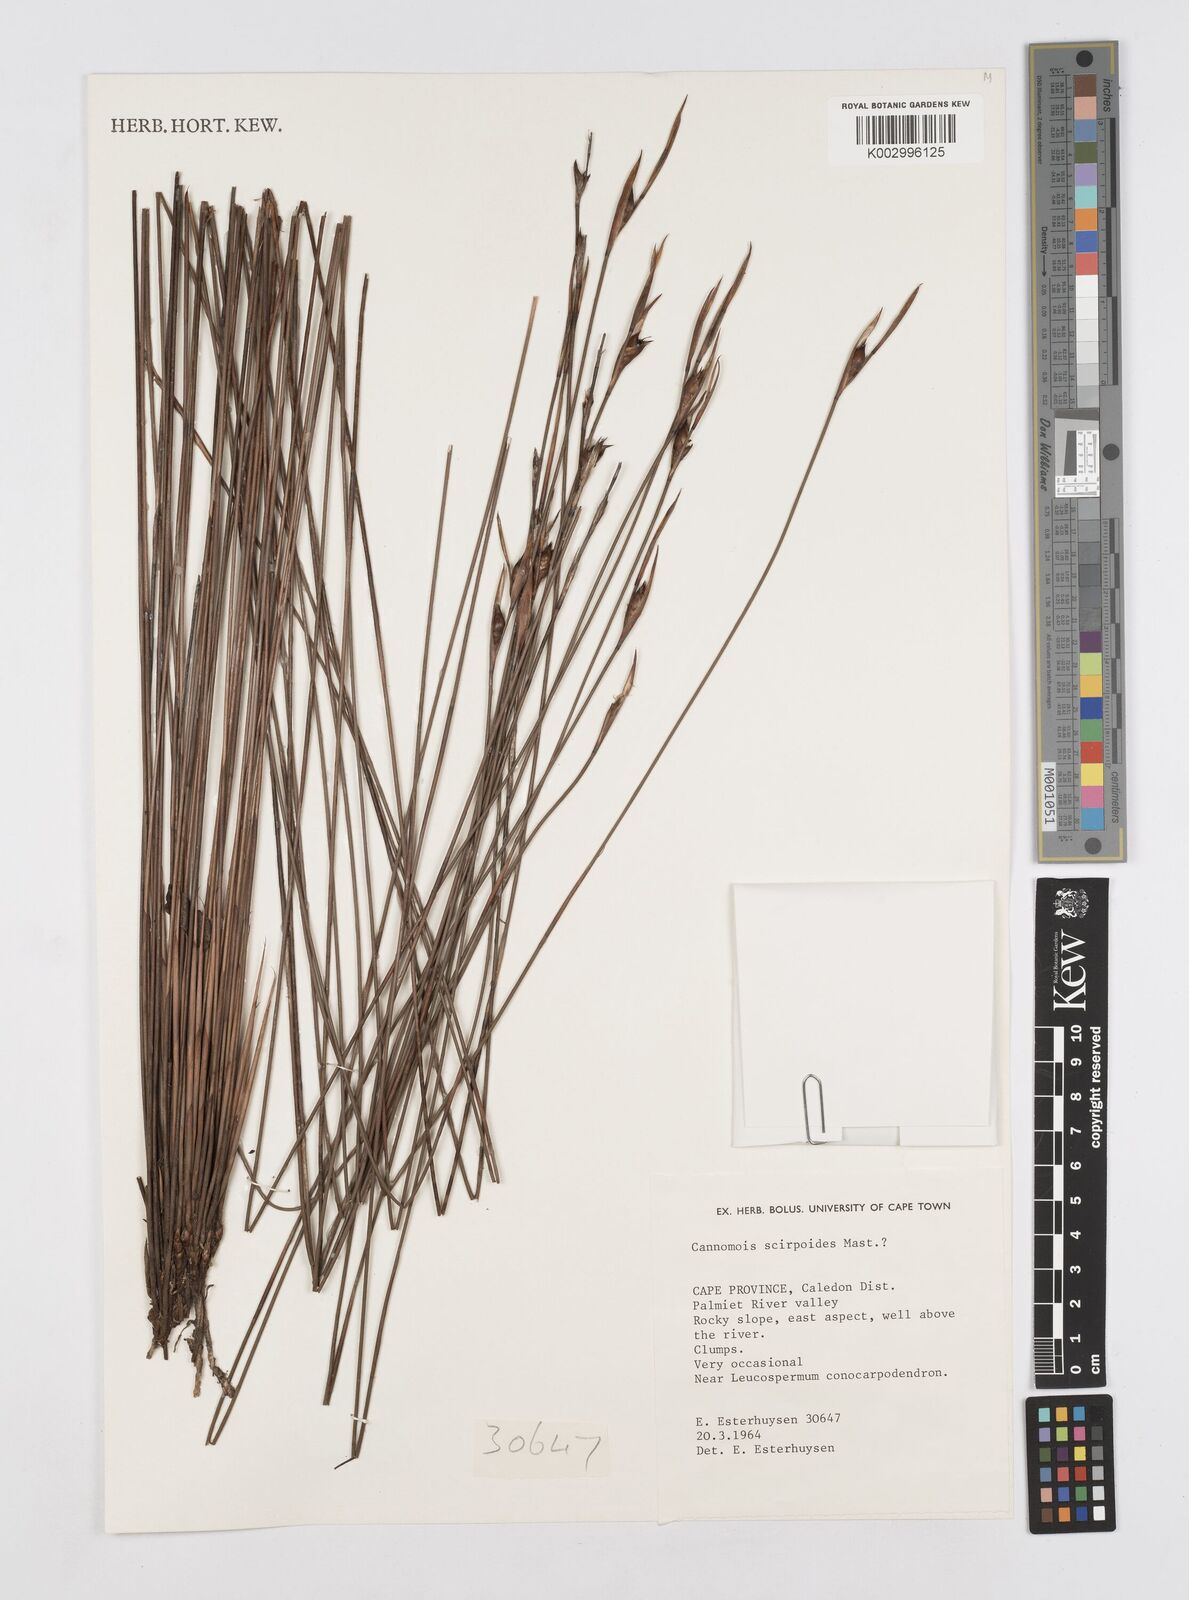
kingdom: Plantae
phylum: Tracheophyta
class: Liliopsida
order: Poales
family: Restionaceae
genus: Cannomois
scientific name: Cannomois scirpoides
